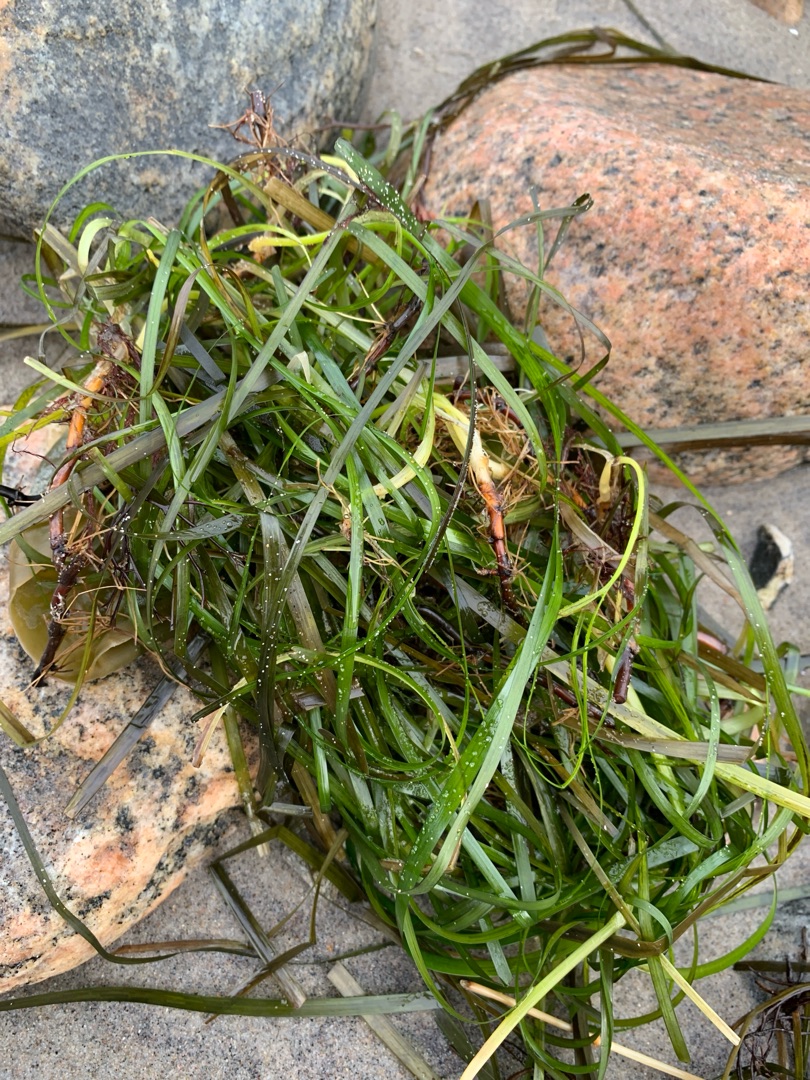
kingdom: Plantae
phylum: Tracheophyta
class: Liliopsida
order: Alismatales
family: Zosteraceae
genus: Zostera
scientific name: Zostera marina
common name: Almindelig bændeltang
